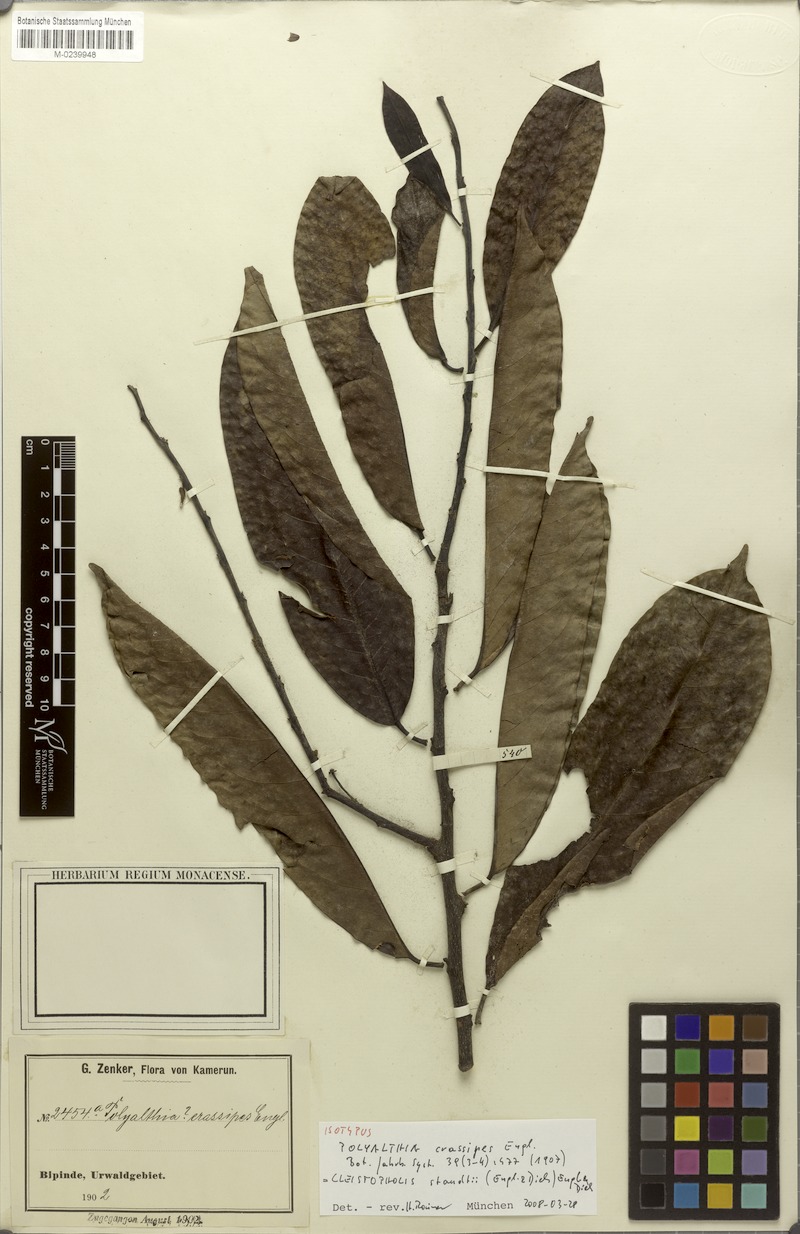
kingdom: Plantae
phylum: Tracheophyta
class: Magnoliopsida
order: Magnoliales
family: Annonaceae
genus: Cleistopholis
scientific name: Cleistopholis staudtii
